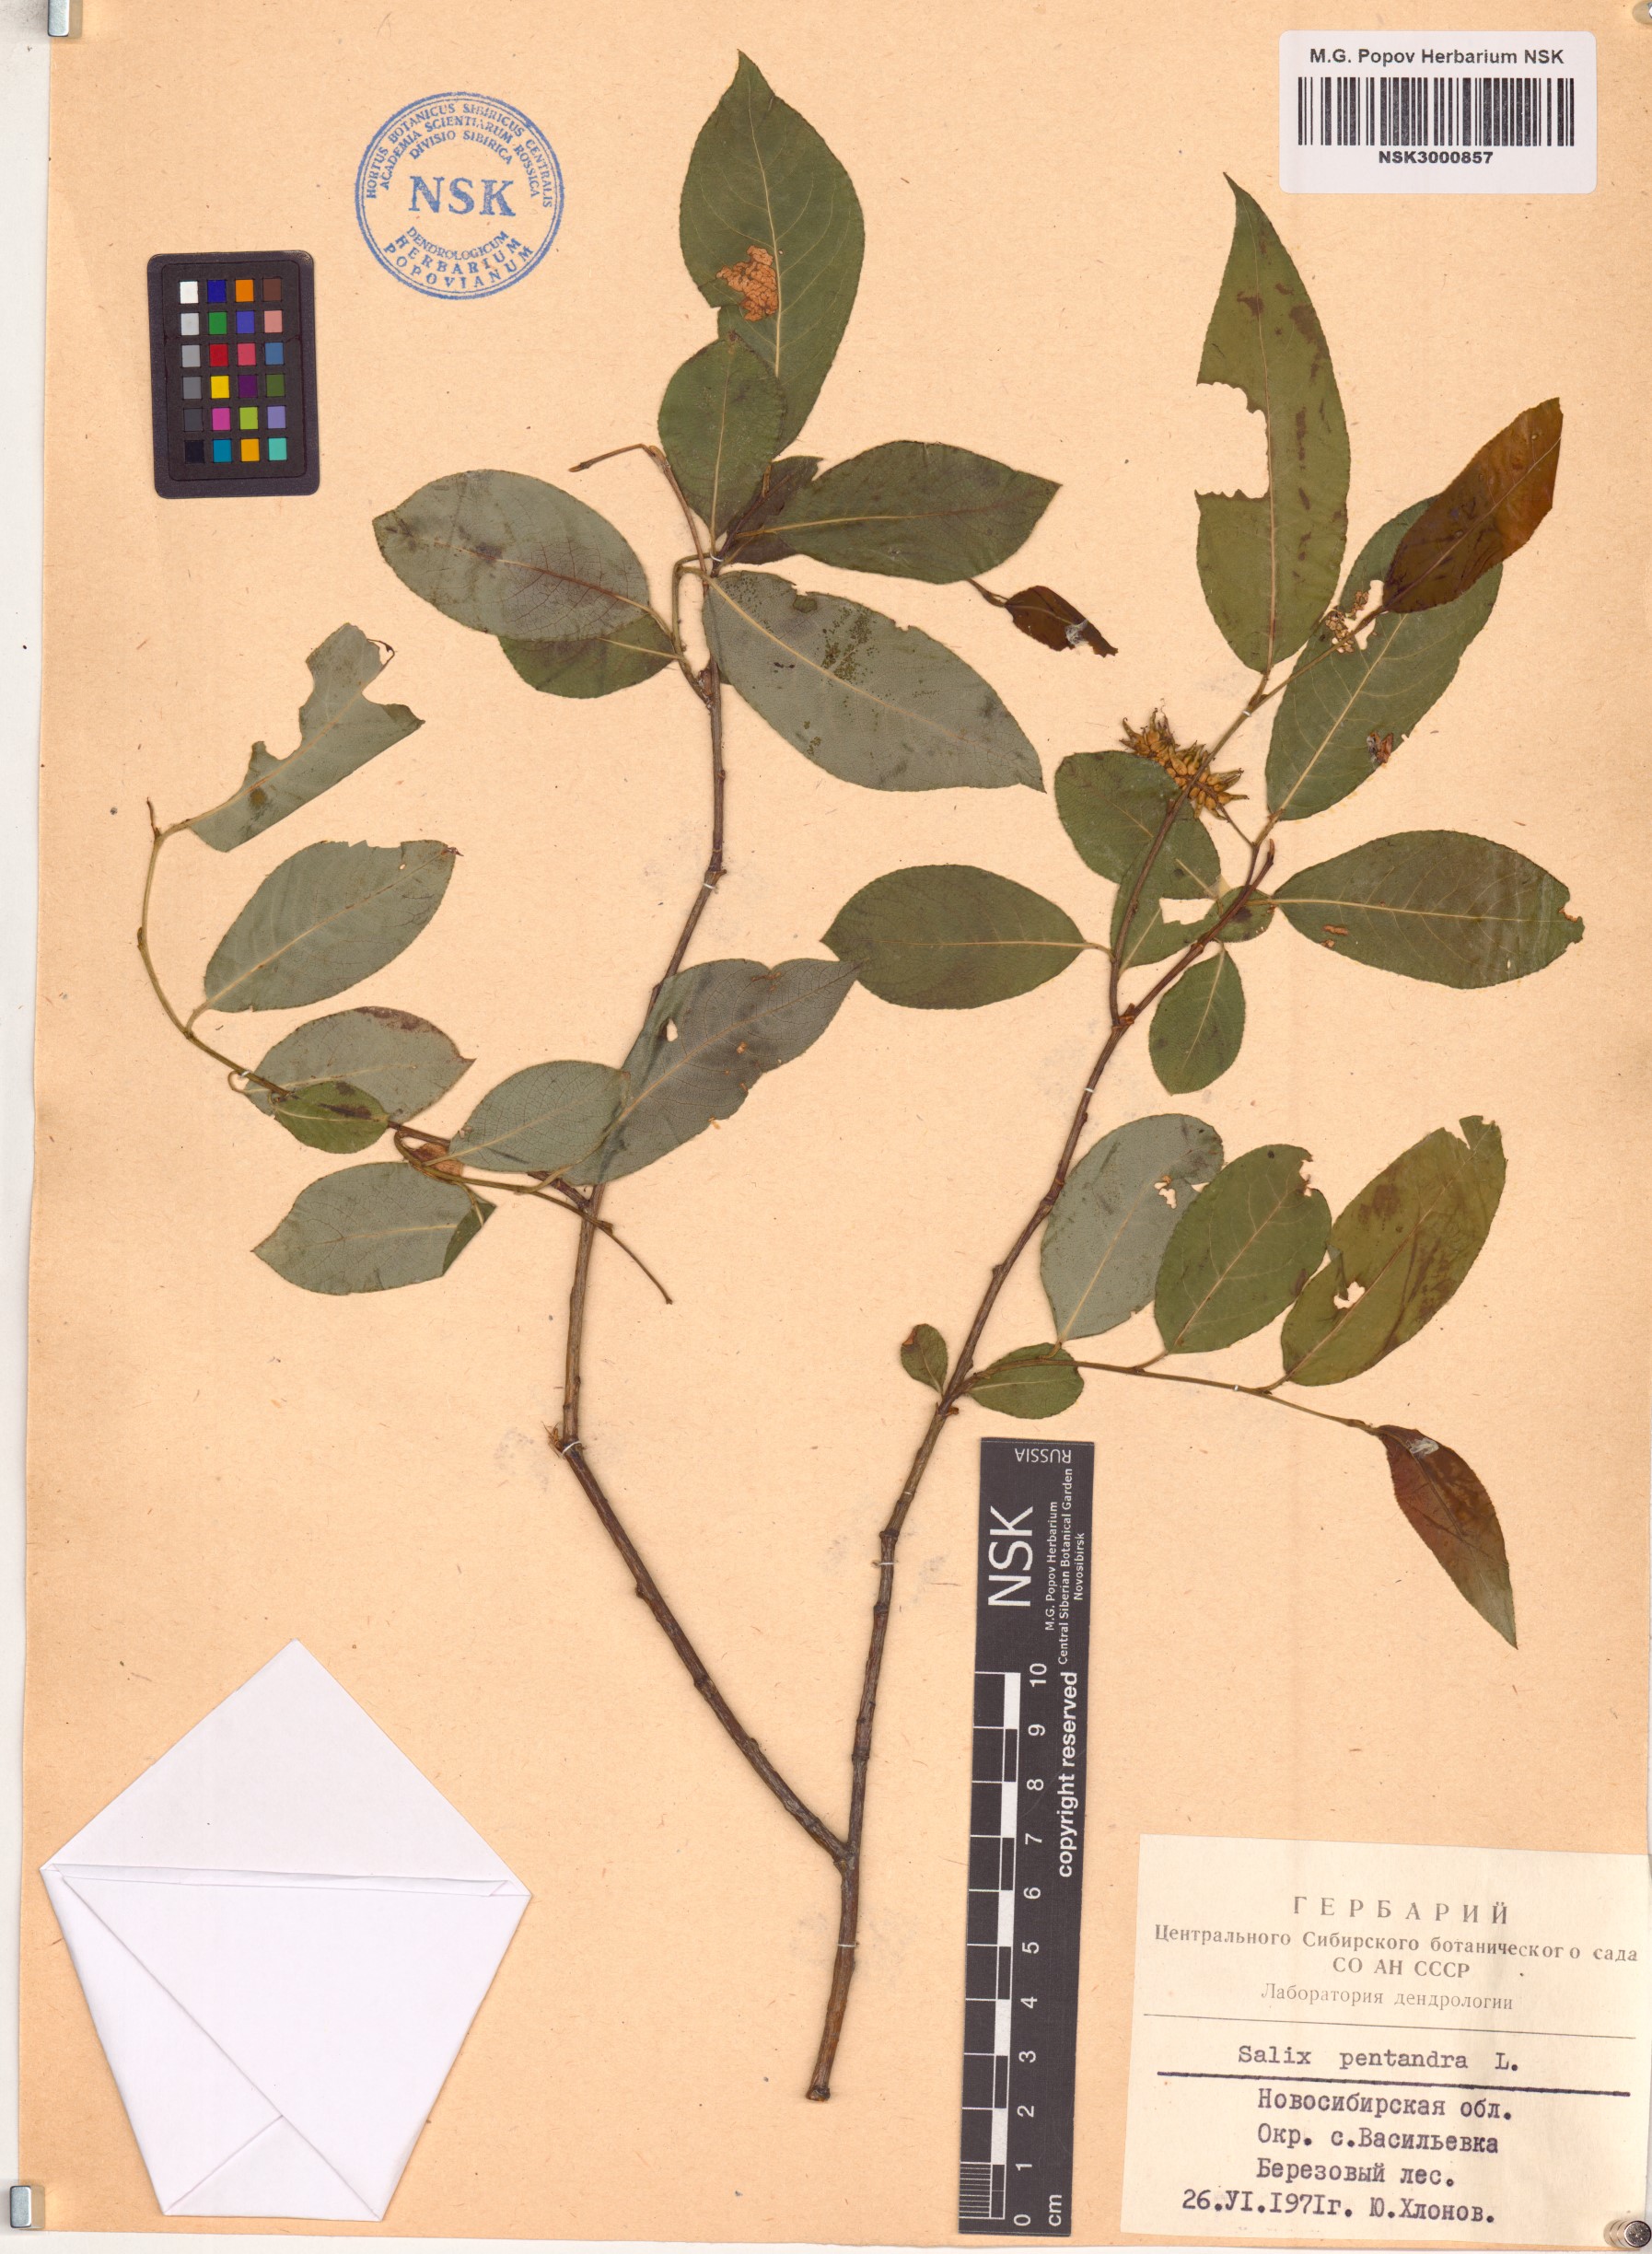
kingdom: Plantae
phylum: Tracheophyta
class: Magnoliopsida
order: Malpighiales
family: Salicaceae
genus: Salix
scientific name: Salix pentandra
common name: Bay willow
